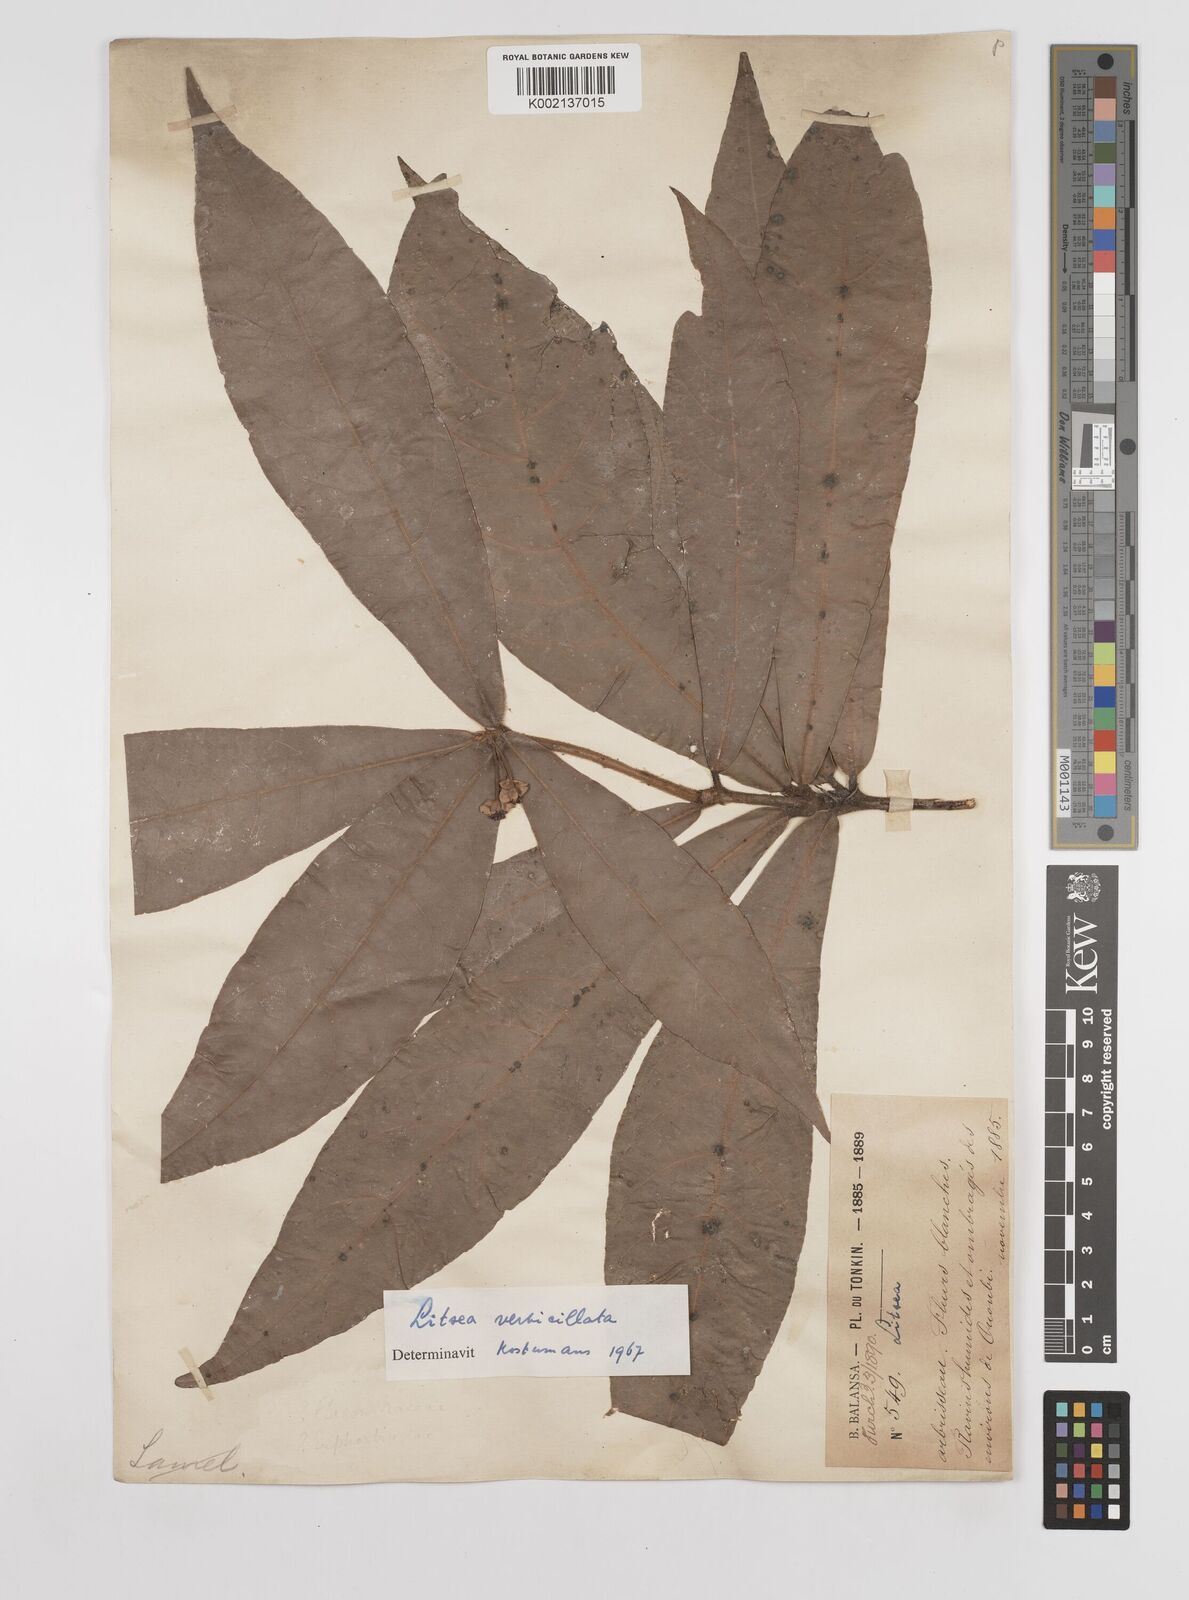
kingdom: Plantae
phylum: Tracheophyta
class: Magnoliopsida
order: Laurales
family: Lauraceae
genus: Litsea
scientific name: Litsea verticillata
